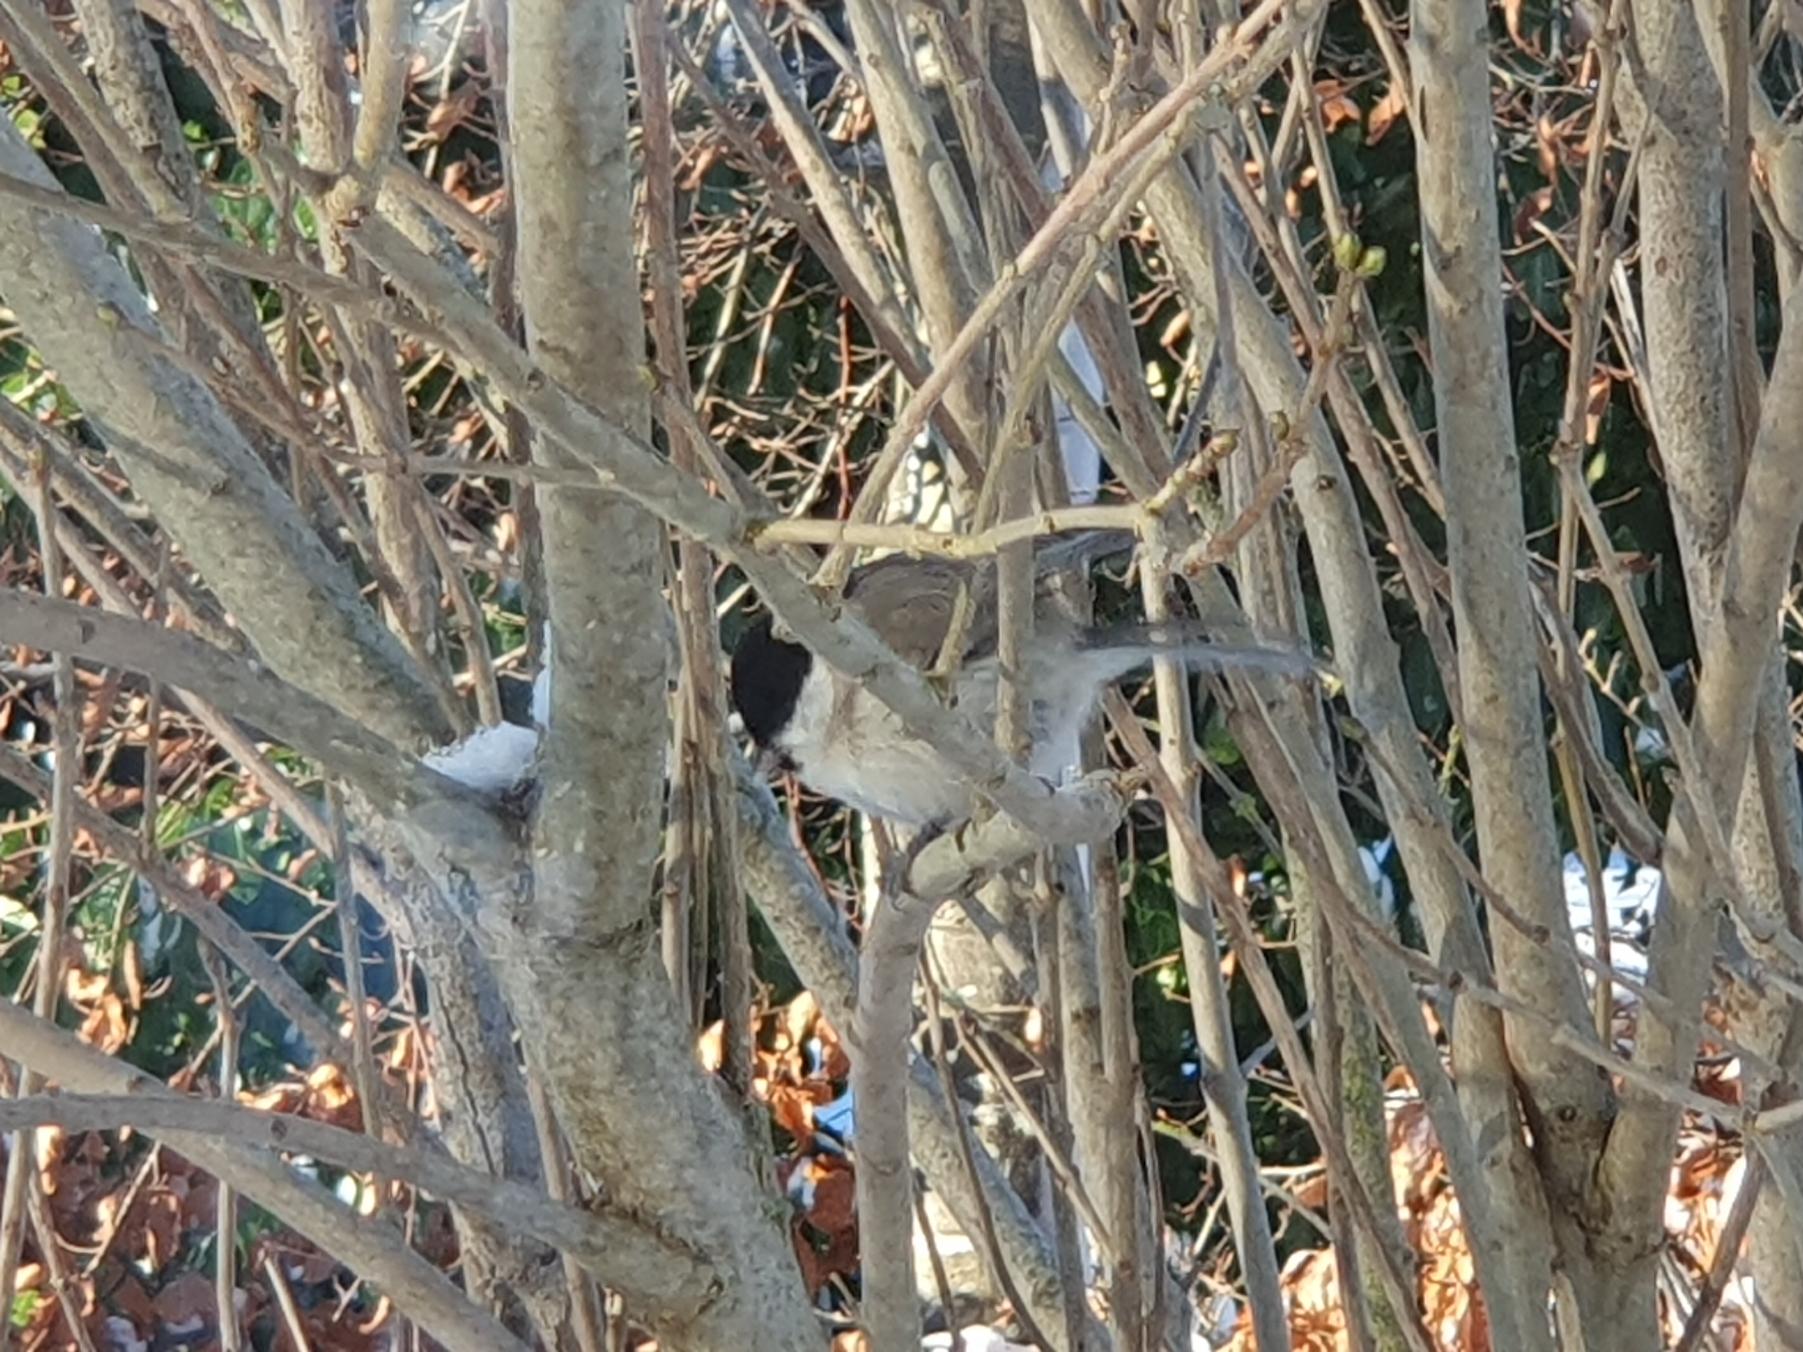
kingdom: Animalia
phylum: Chordata
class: Aves
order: Passeriformes
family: Paridae
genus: Poecile
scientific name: Poecile palustris
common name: Sumpmejse
